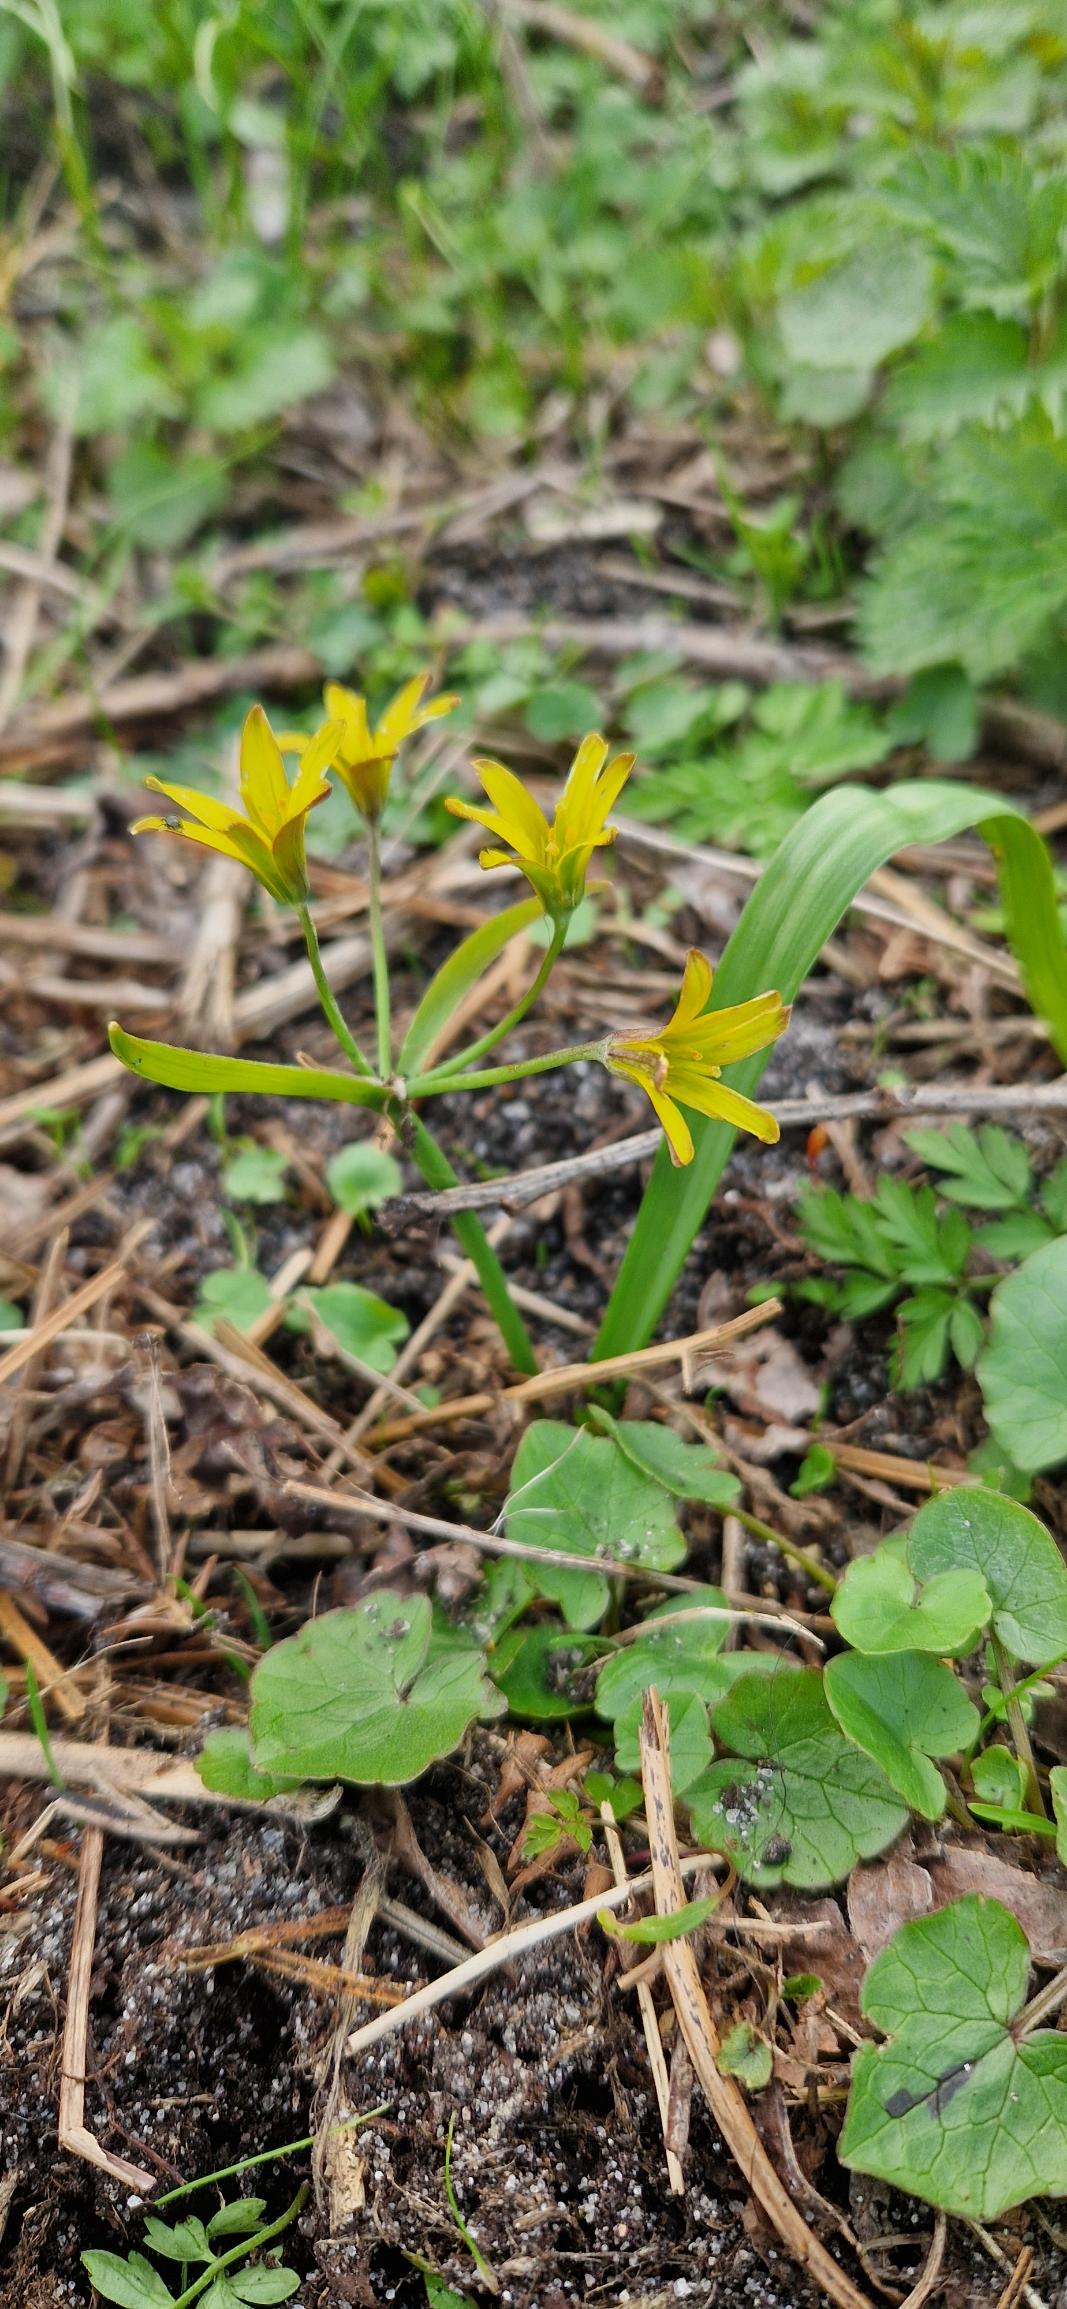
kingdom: Plantae
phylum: Tracheophyta
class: Liliopsida
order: Liliales
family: Liliaceae
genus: Gagea
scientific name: Gagea lutea
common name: Almindelig guldstjerne
